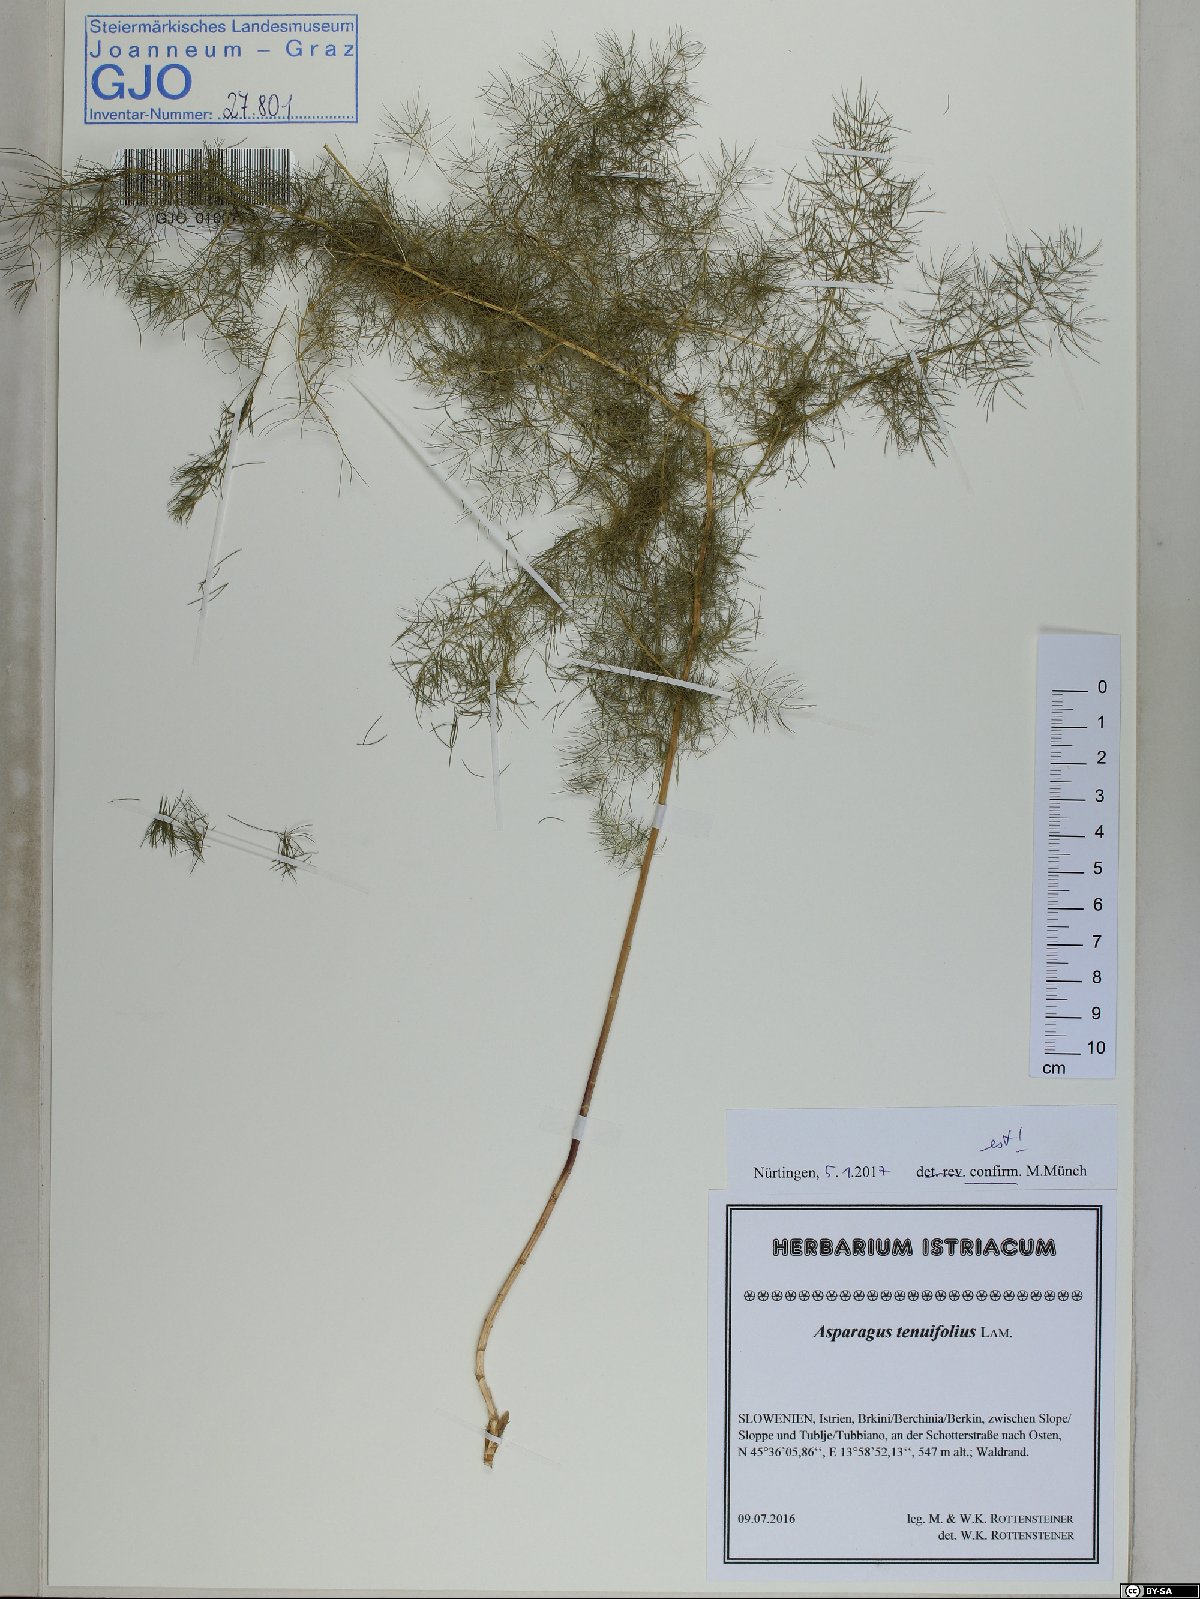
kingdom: Plantae
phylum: Tracheophyta
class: Liliopsida
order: Asparagales
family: Asparagaceae
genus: Asparagus
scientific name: Asparagus tenuifolius
